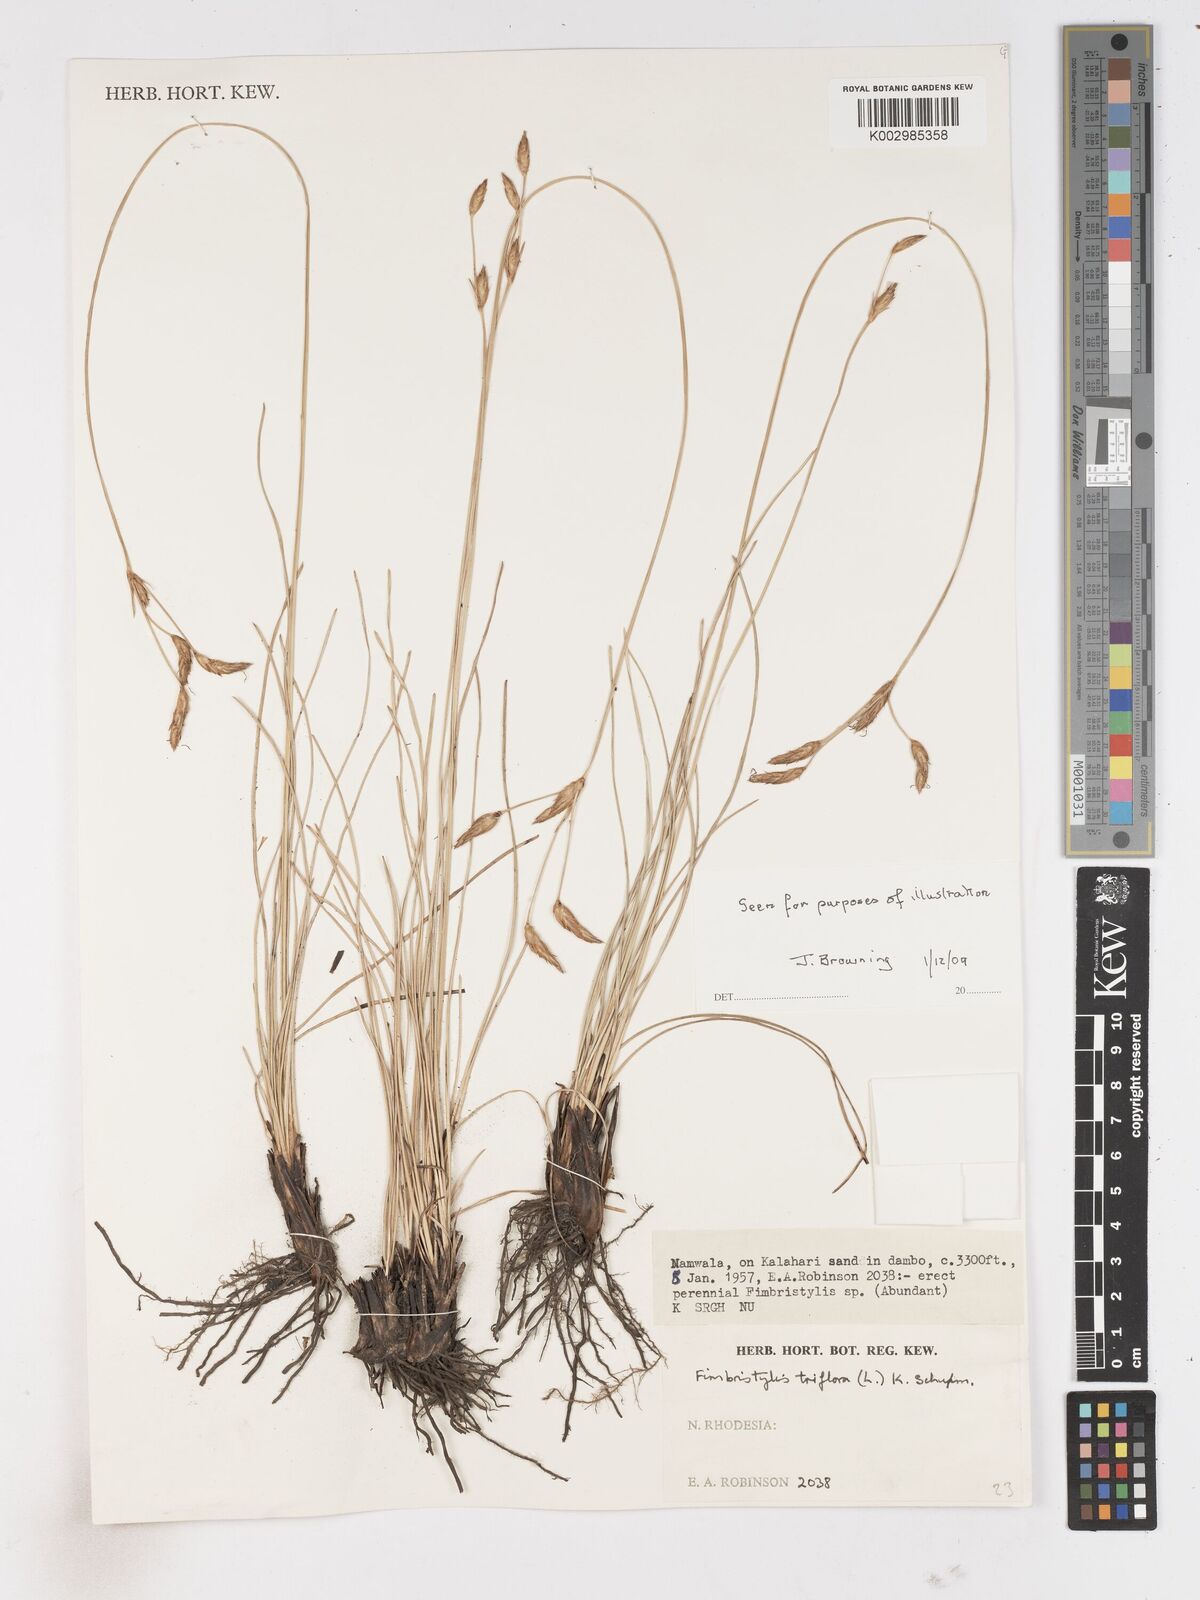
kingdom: Plantae
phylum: Tracheophyta
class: Liliopsida
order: Poales
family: Cyperaceae
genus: Abildgaardia
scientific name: Abildgaardia triflora
